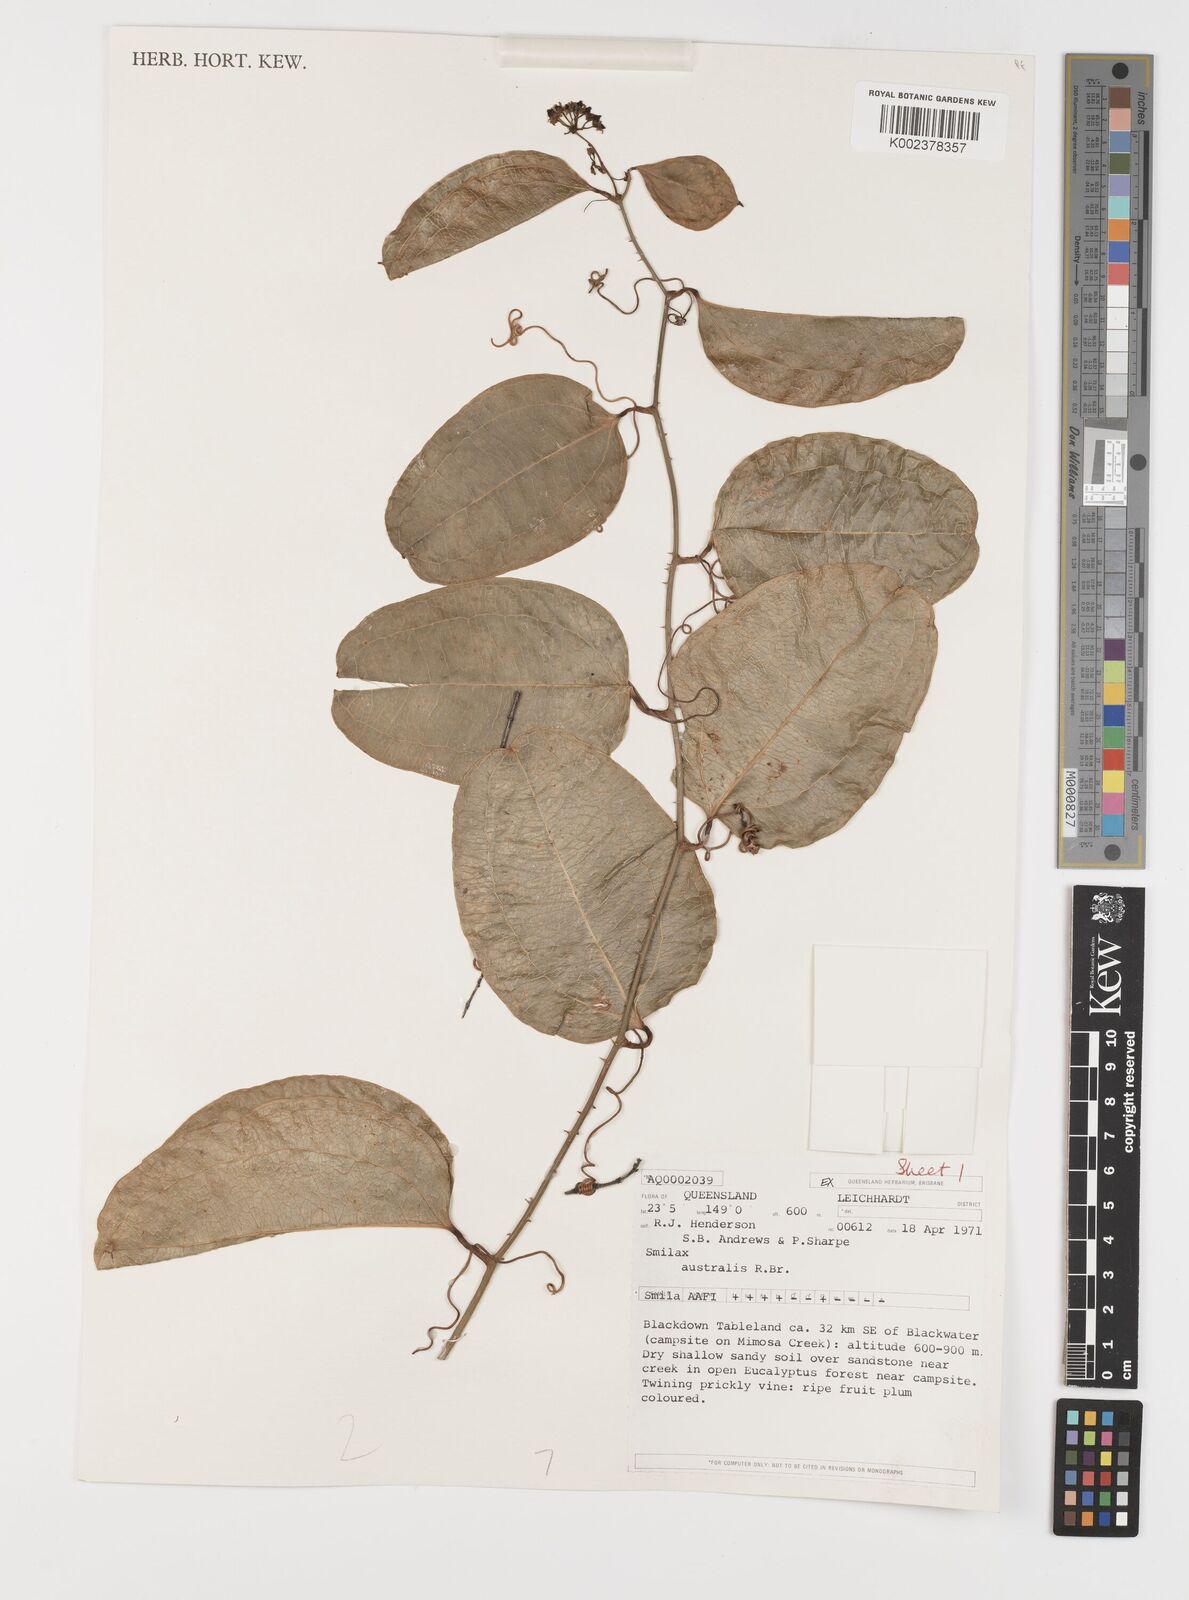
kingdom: Plantae
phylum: Tracheophyta
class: Liliopsida
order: Liliales
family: Smilacaceae
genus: Smilax
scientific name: Smilax australis
